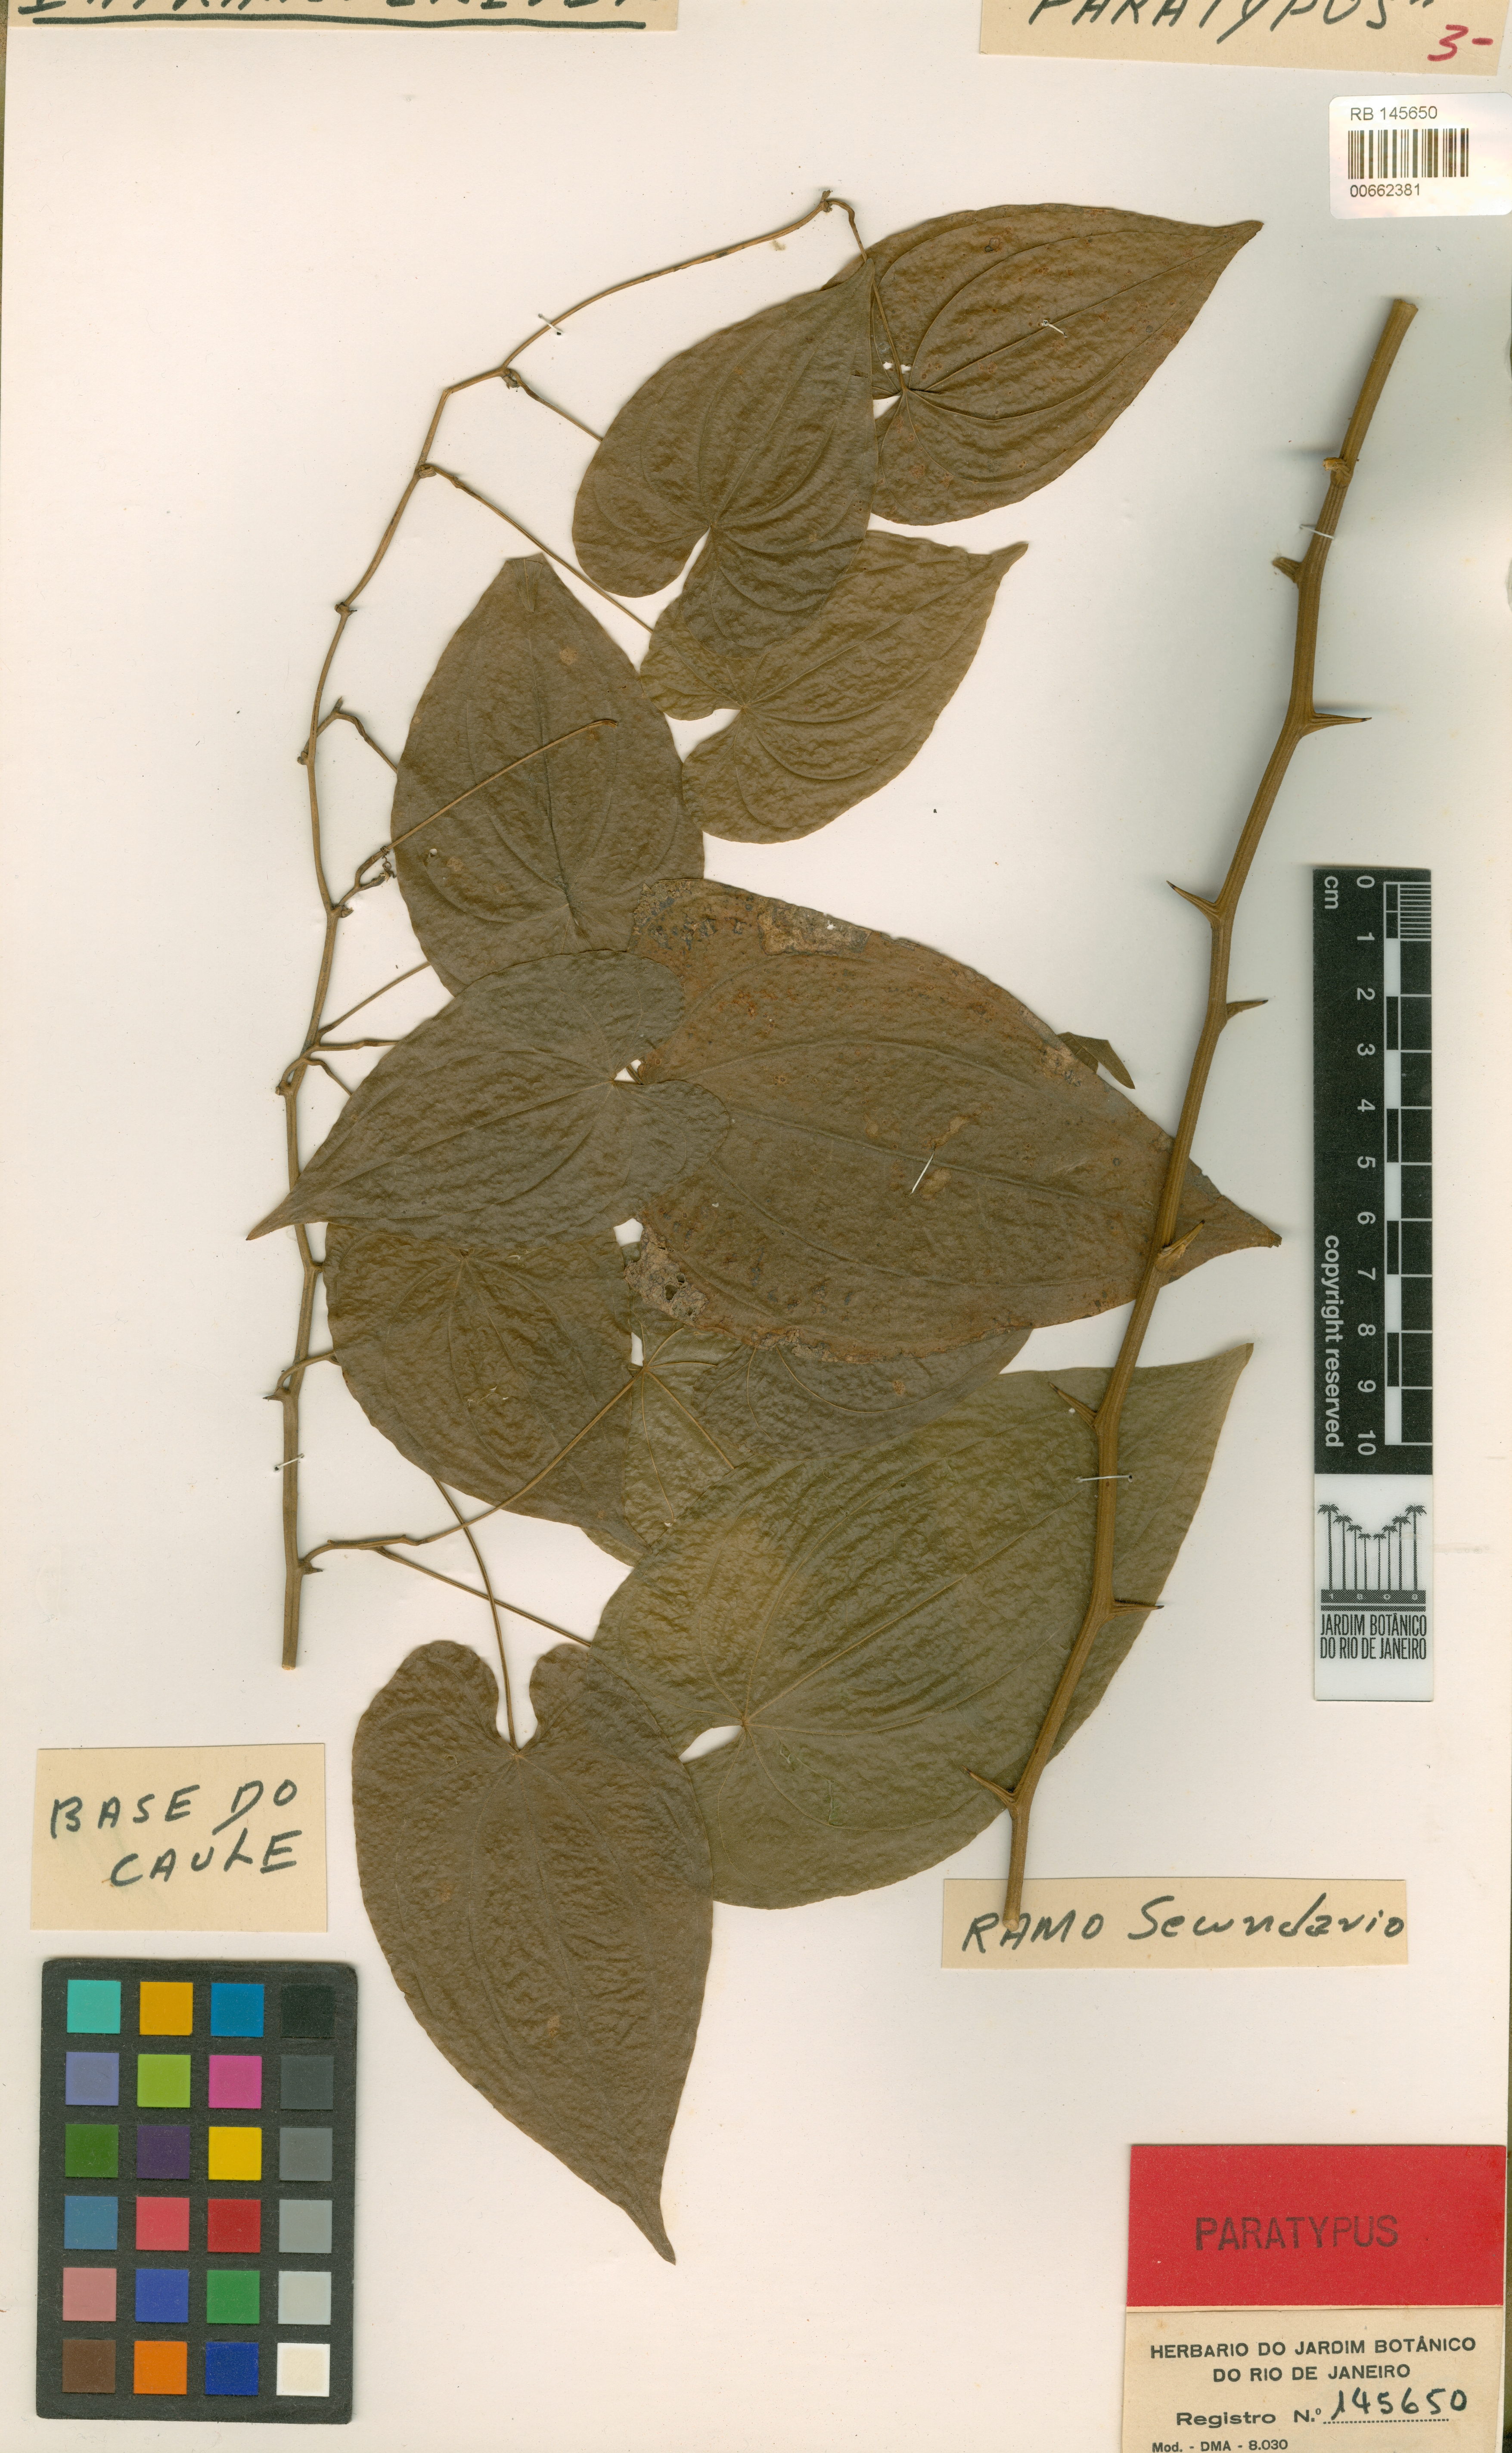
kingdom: Plantae
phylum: Tracheophyta
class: Liliopsida
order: Dioscoreales
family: Dioscoreaceae
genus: Dioscorea
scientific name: Dioscorea pseudomacrocapsa
